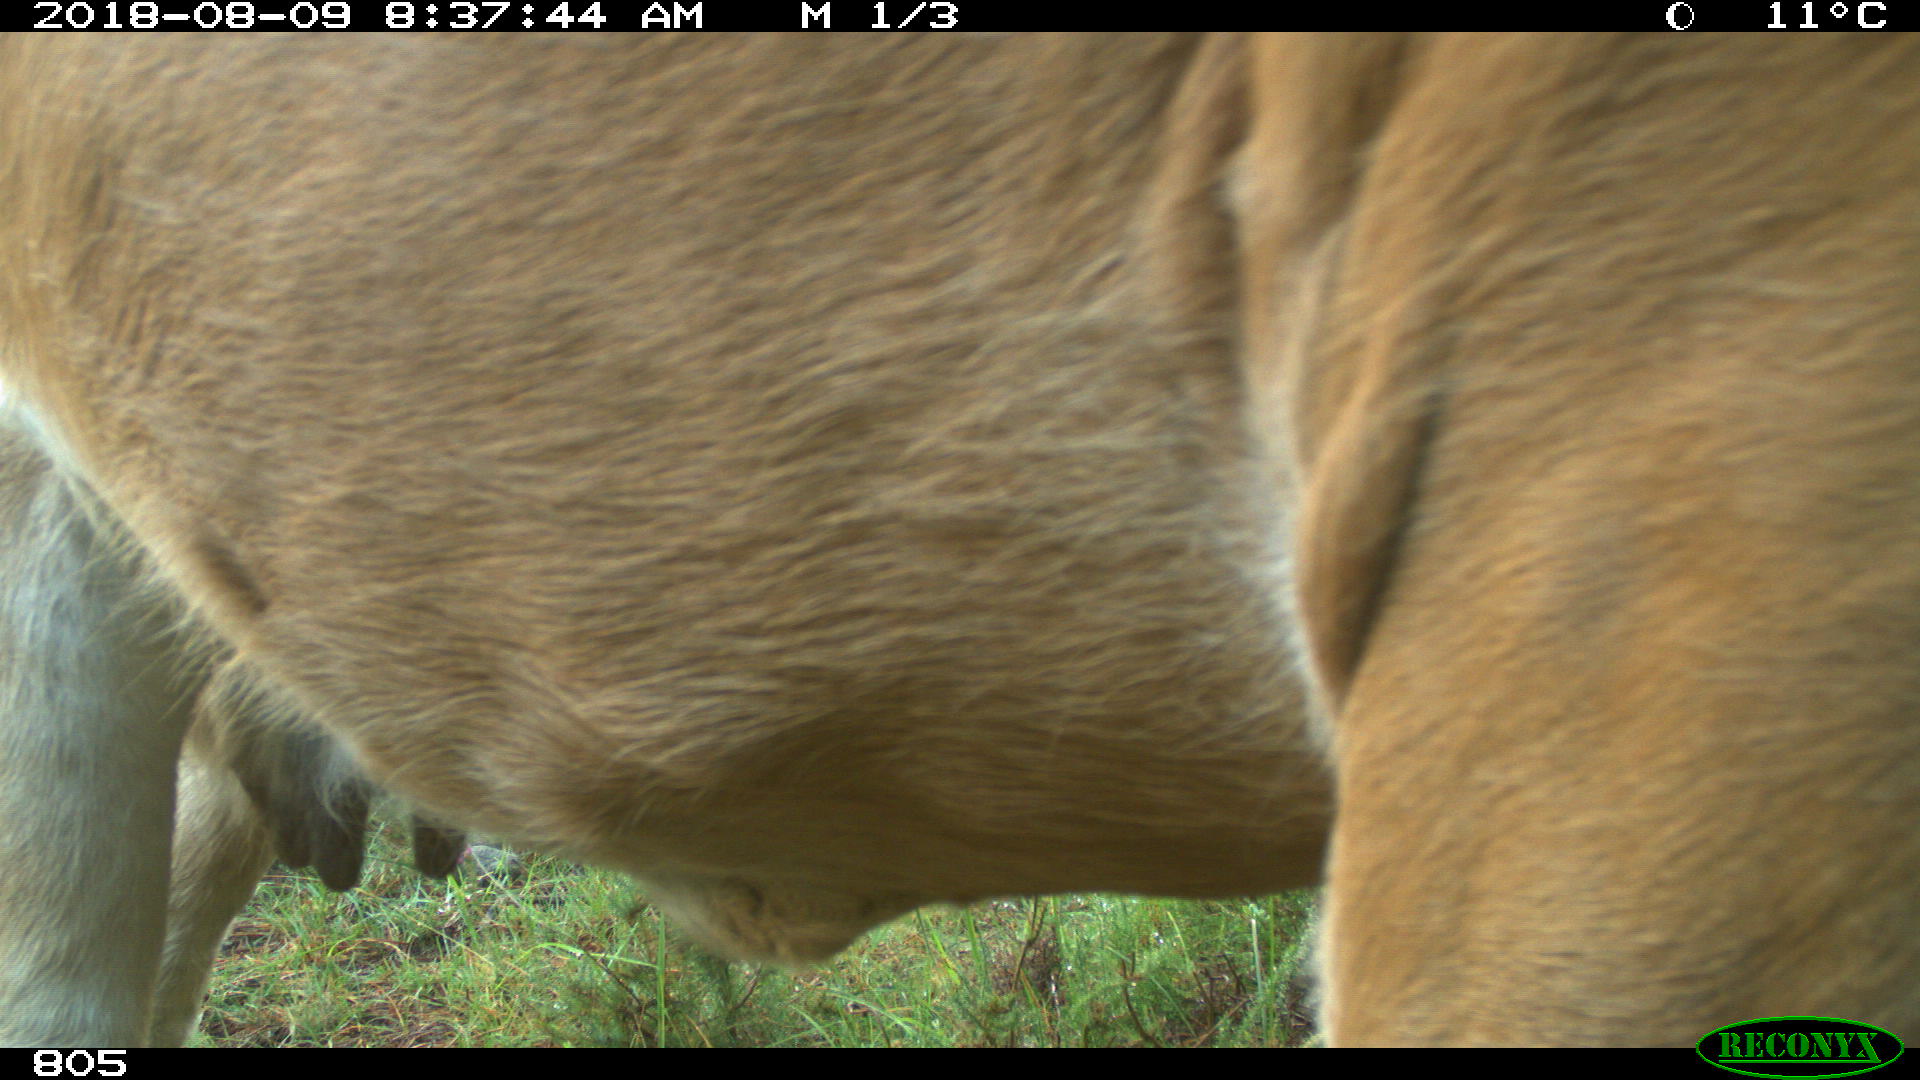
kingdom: Animalia
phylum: Chordata
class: Mammalia
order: Artiodactyla
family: Bovidae
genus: Bos
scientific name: Bos taurus
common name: Domesticated cattle
